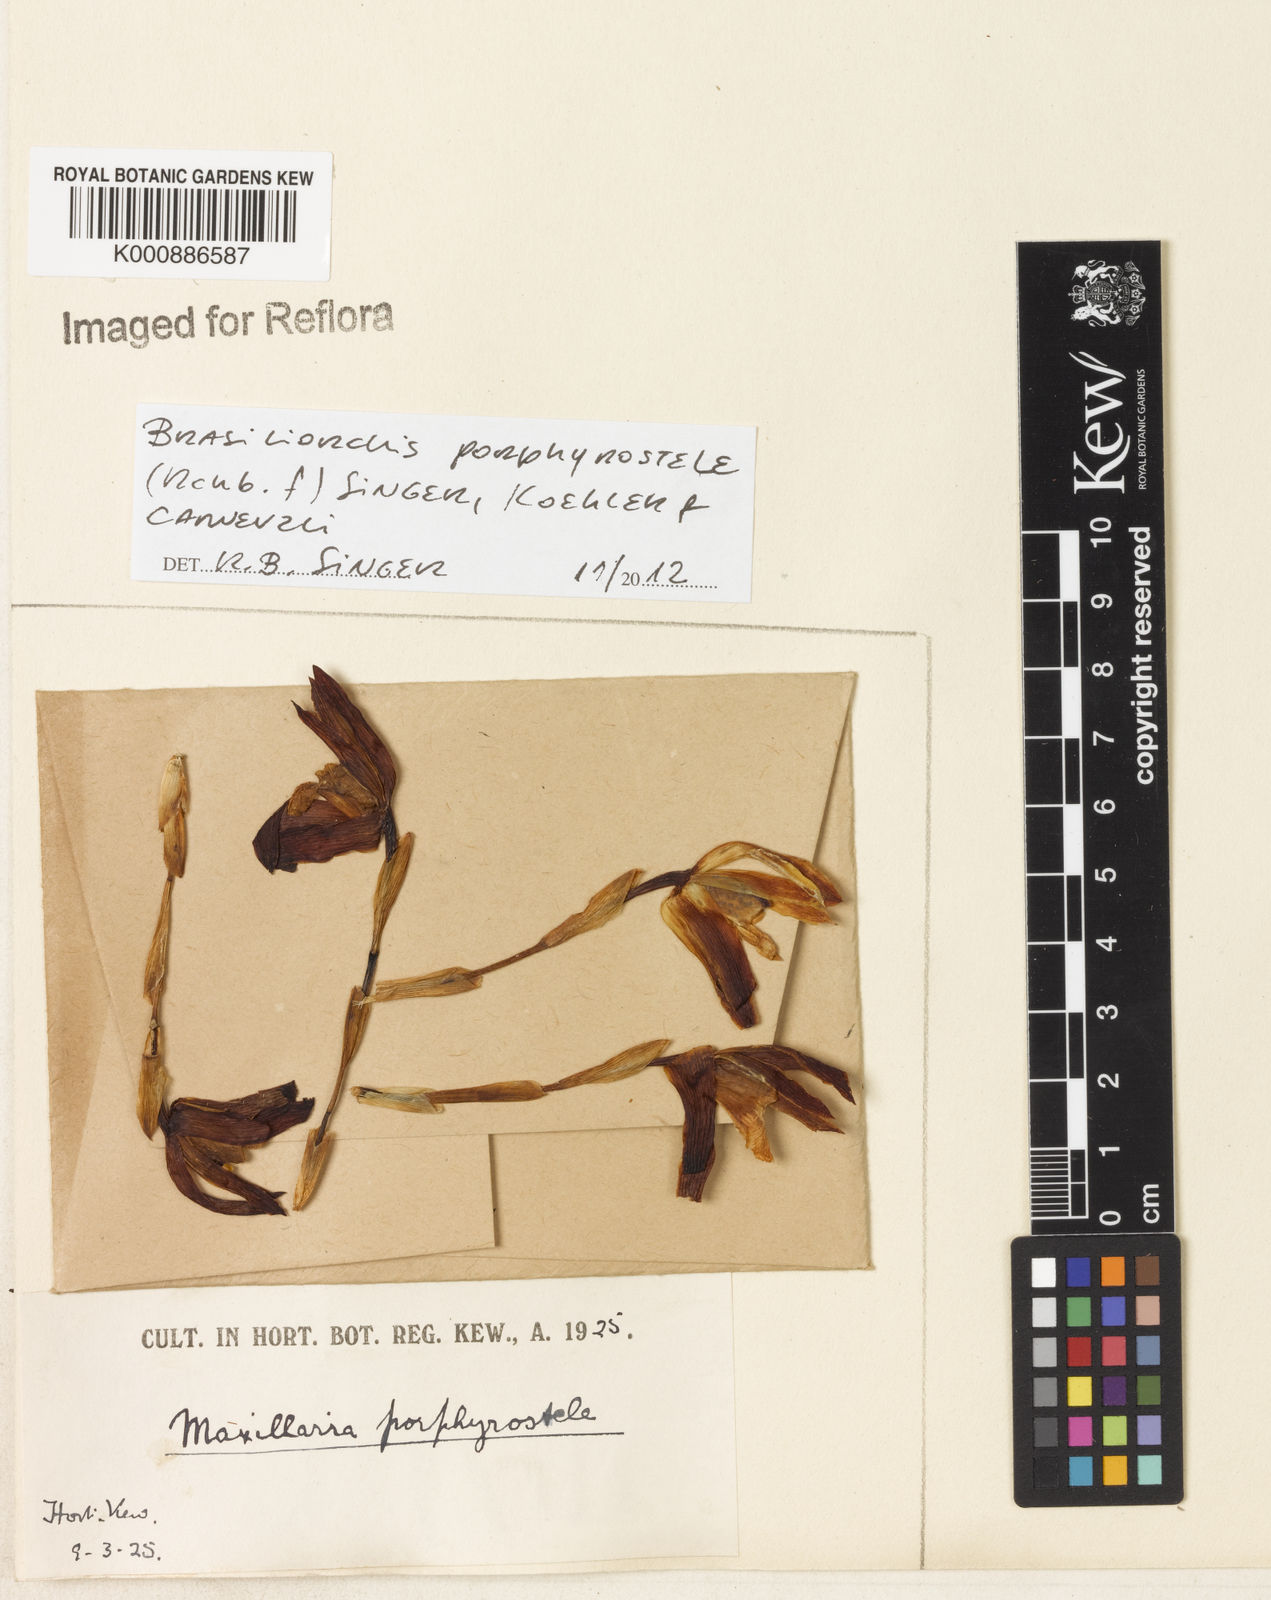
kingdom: Plantae
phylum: Tracheophyta
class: Liliopsida
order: Asparagales
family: Orchidaceae
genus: Maxillaria
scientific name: Maxillaria porphyrostele
